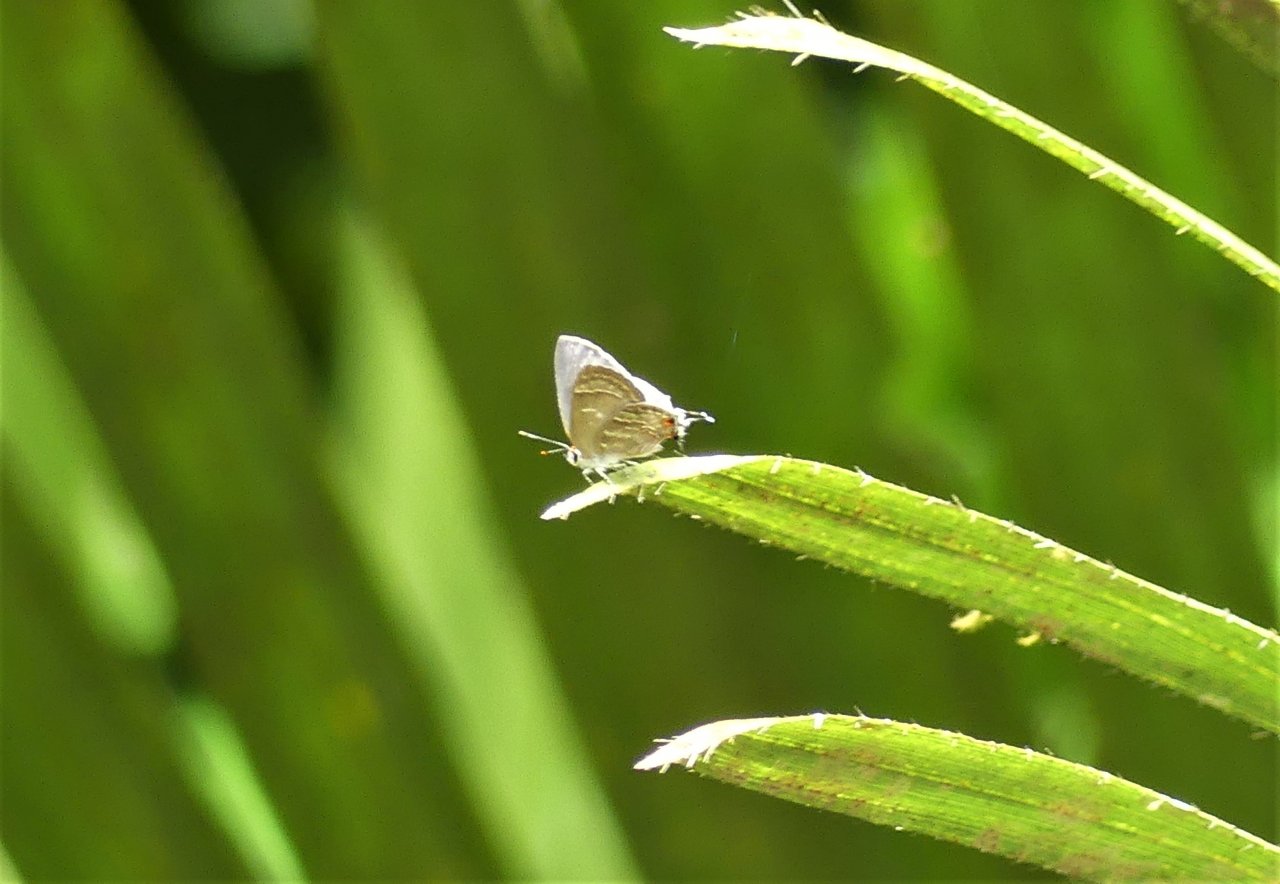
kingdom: Animalia
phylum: Arthropoda
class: Insecta
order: Lepidoptera
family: Lycaenidae
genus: Thecla
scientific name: Thecla yojoa
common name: Yojoa Scrub-Hairstreak
